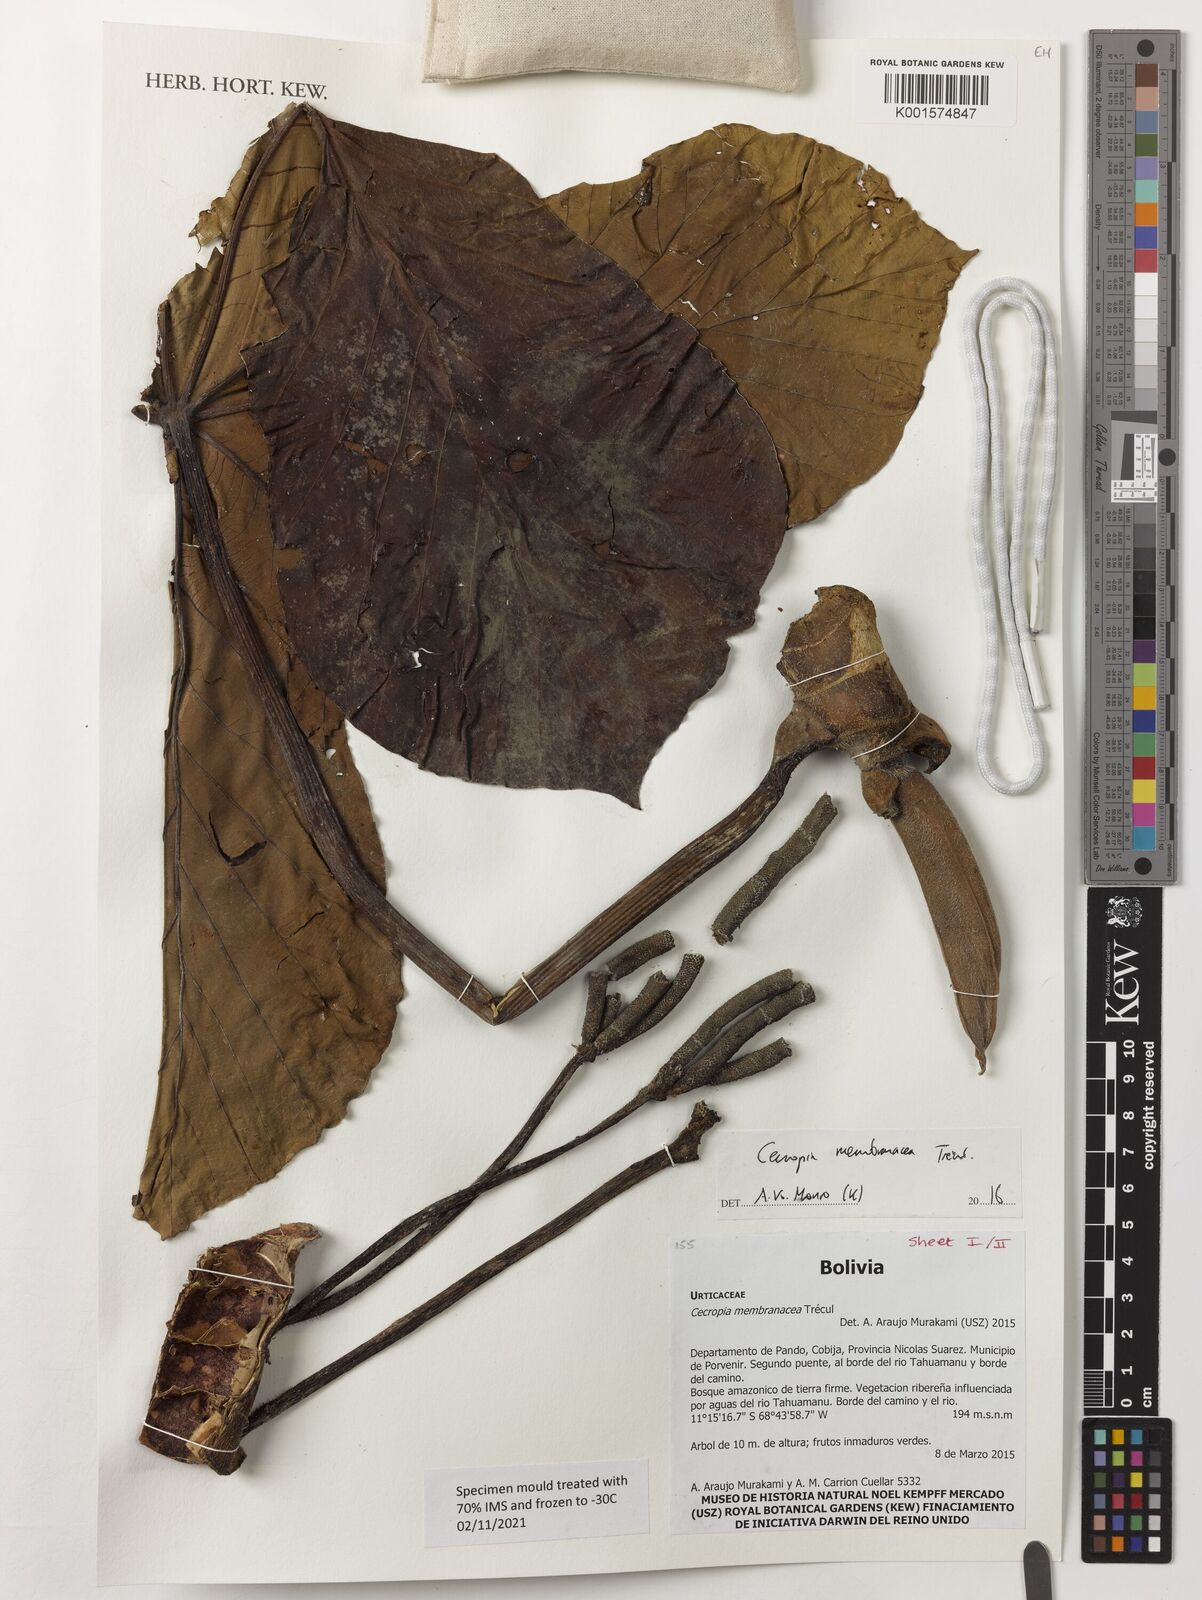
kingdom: Plantae
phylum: Tracheophyta
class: Magnoliopsida
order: Rosales
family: Urticaceae
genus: Cecropia
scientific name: Cecropia membranacea
